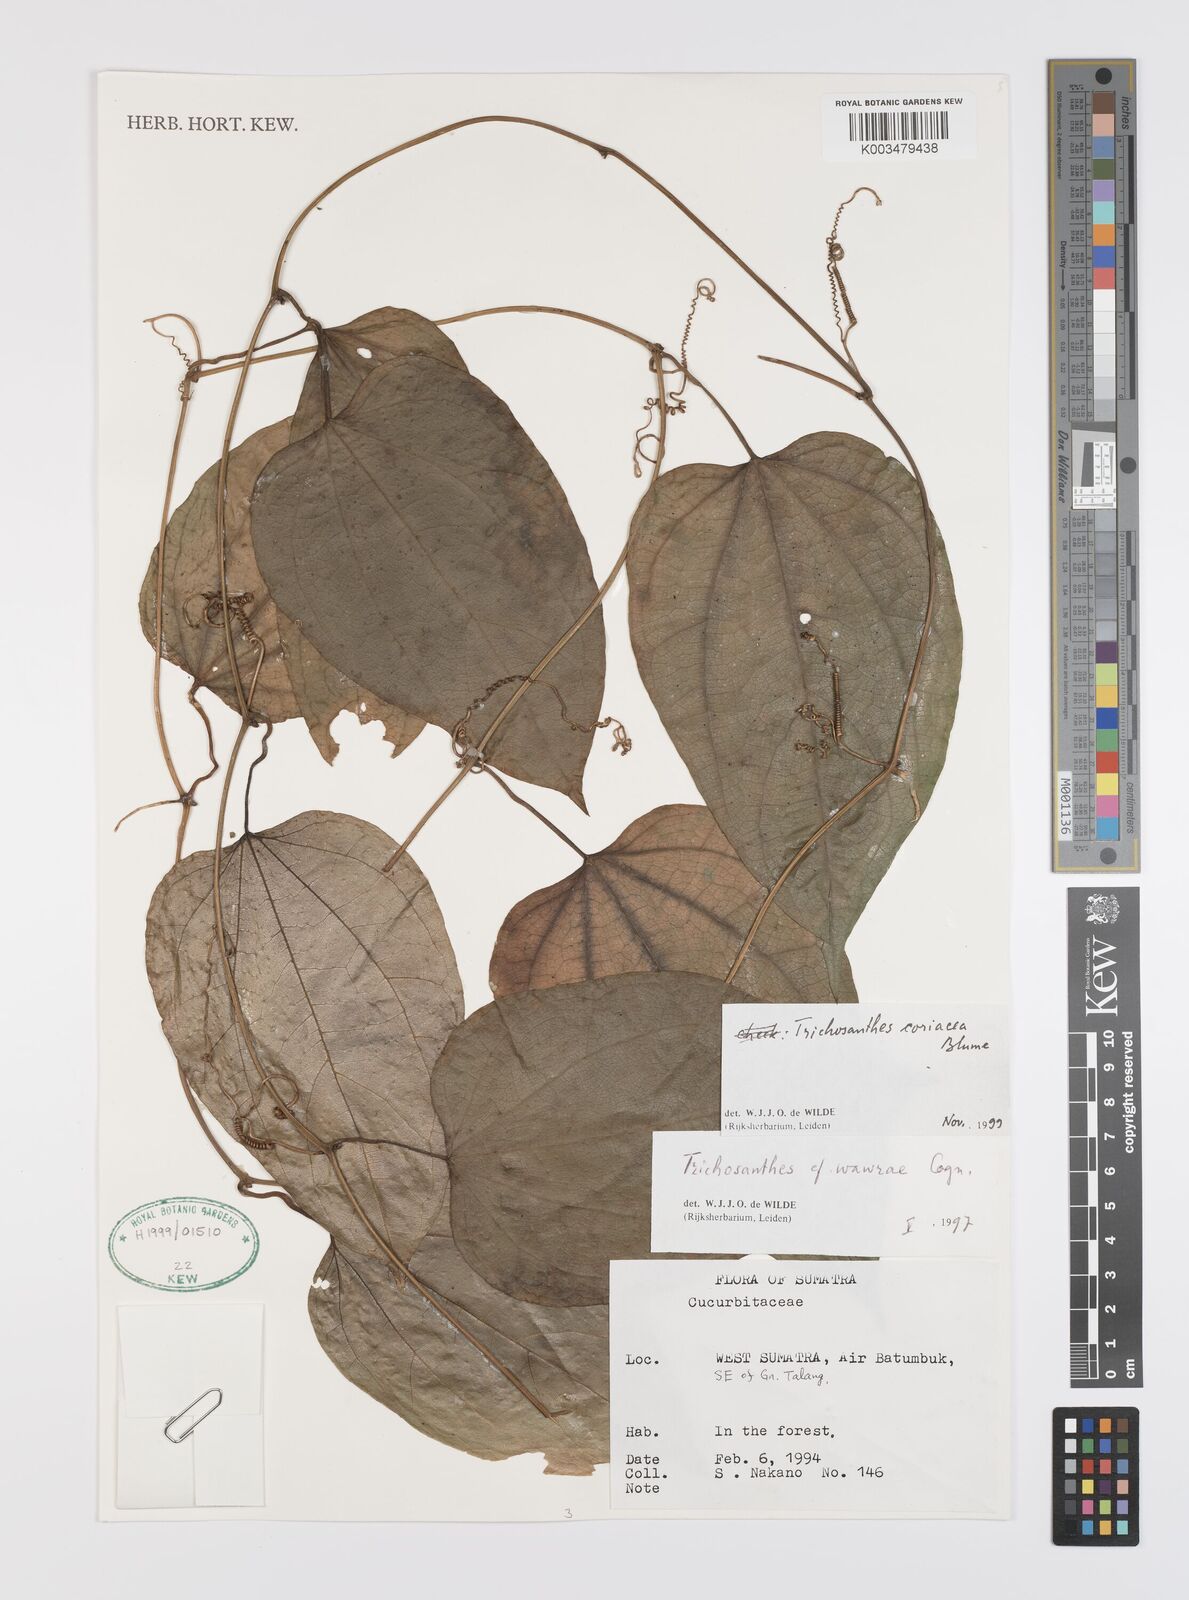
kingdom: Plantae
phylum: Tracheophyta
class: Magnoliopsida
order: Cucurbitales
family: Cucurbitaceae
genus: Trichosanthes
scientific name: Trichosanthes coriacea
